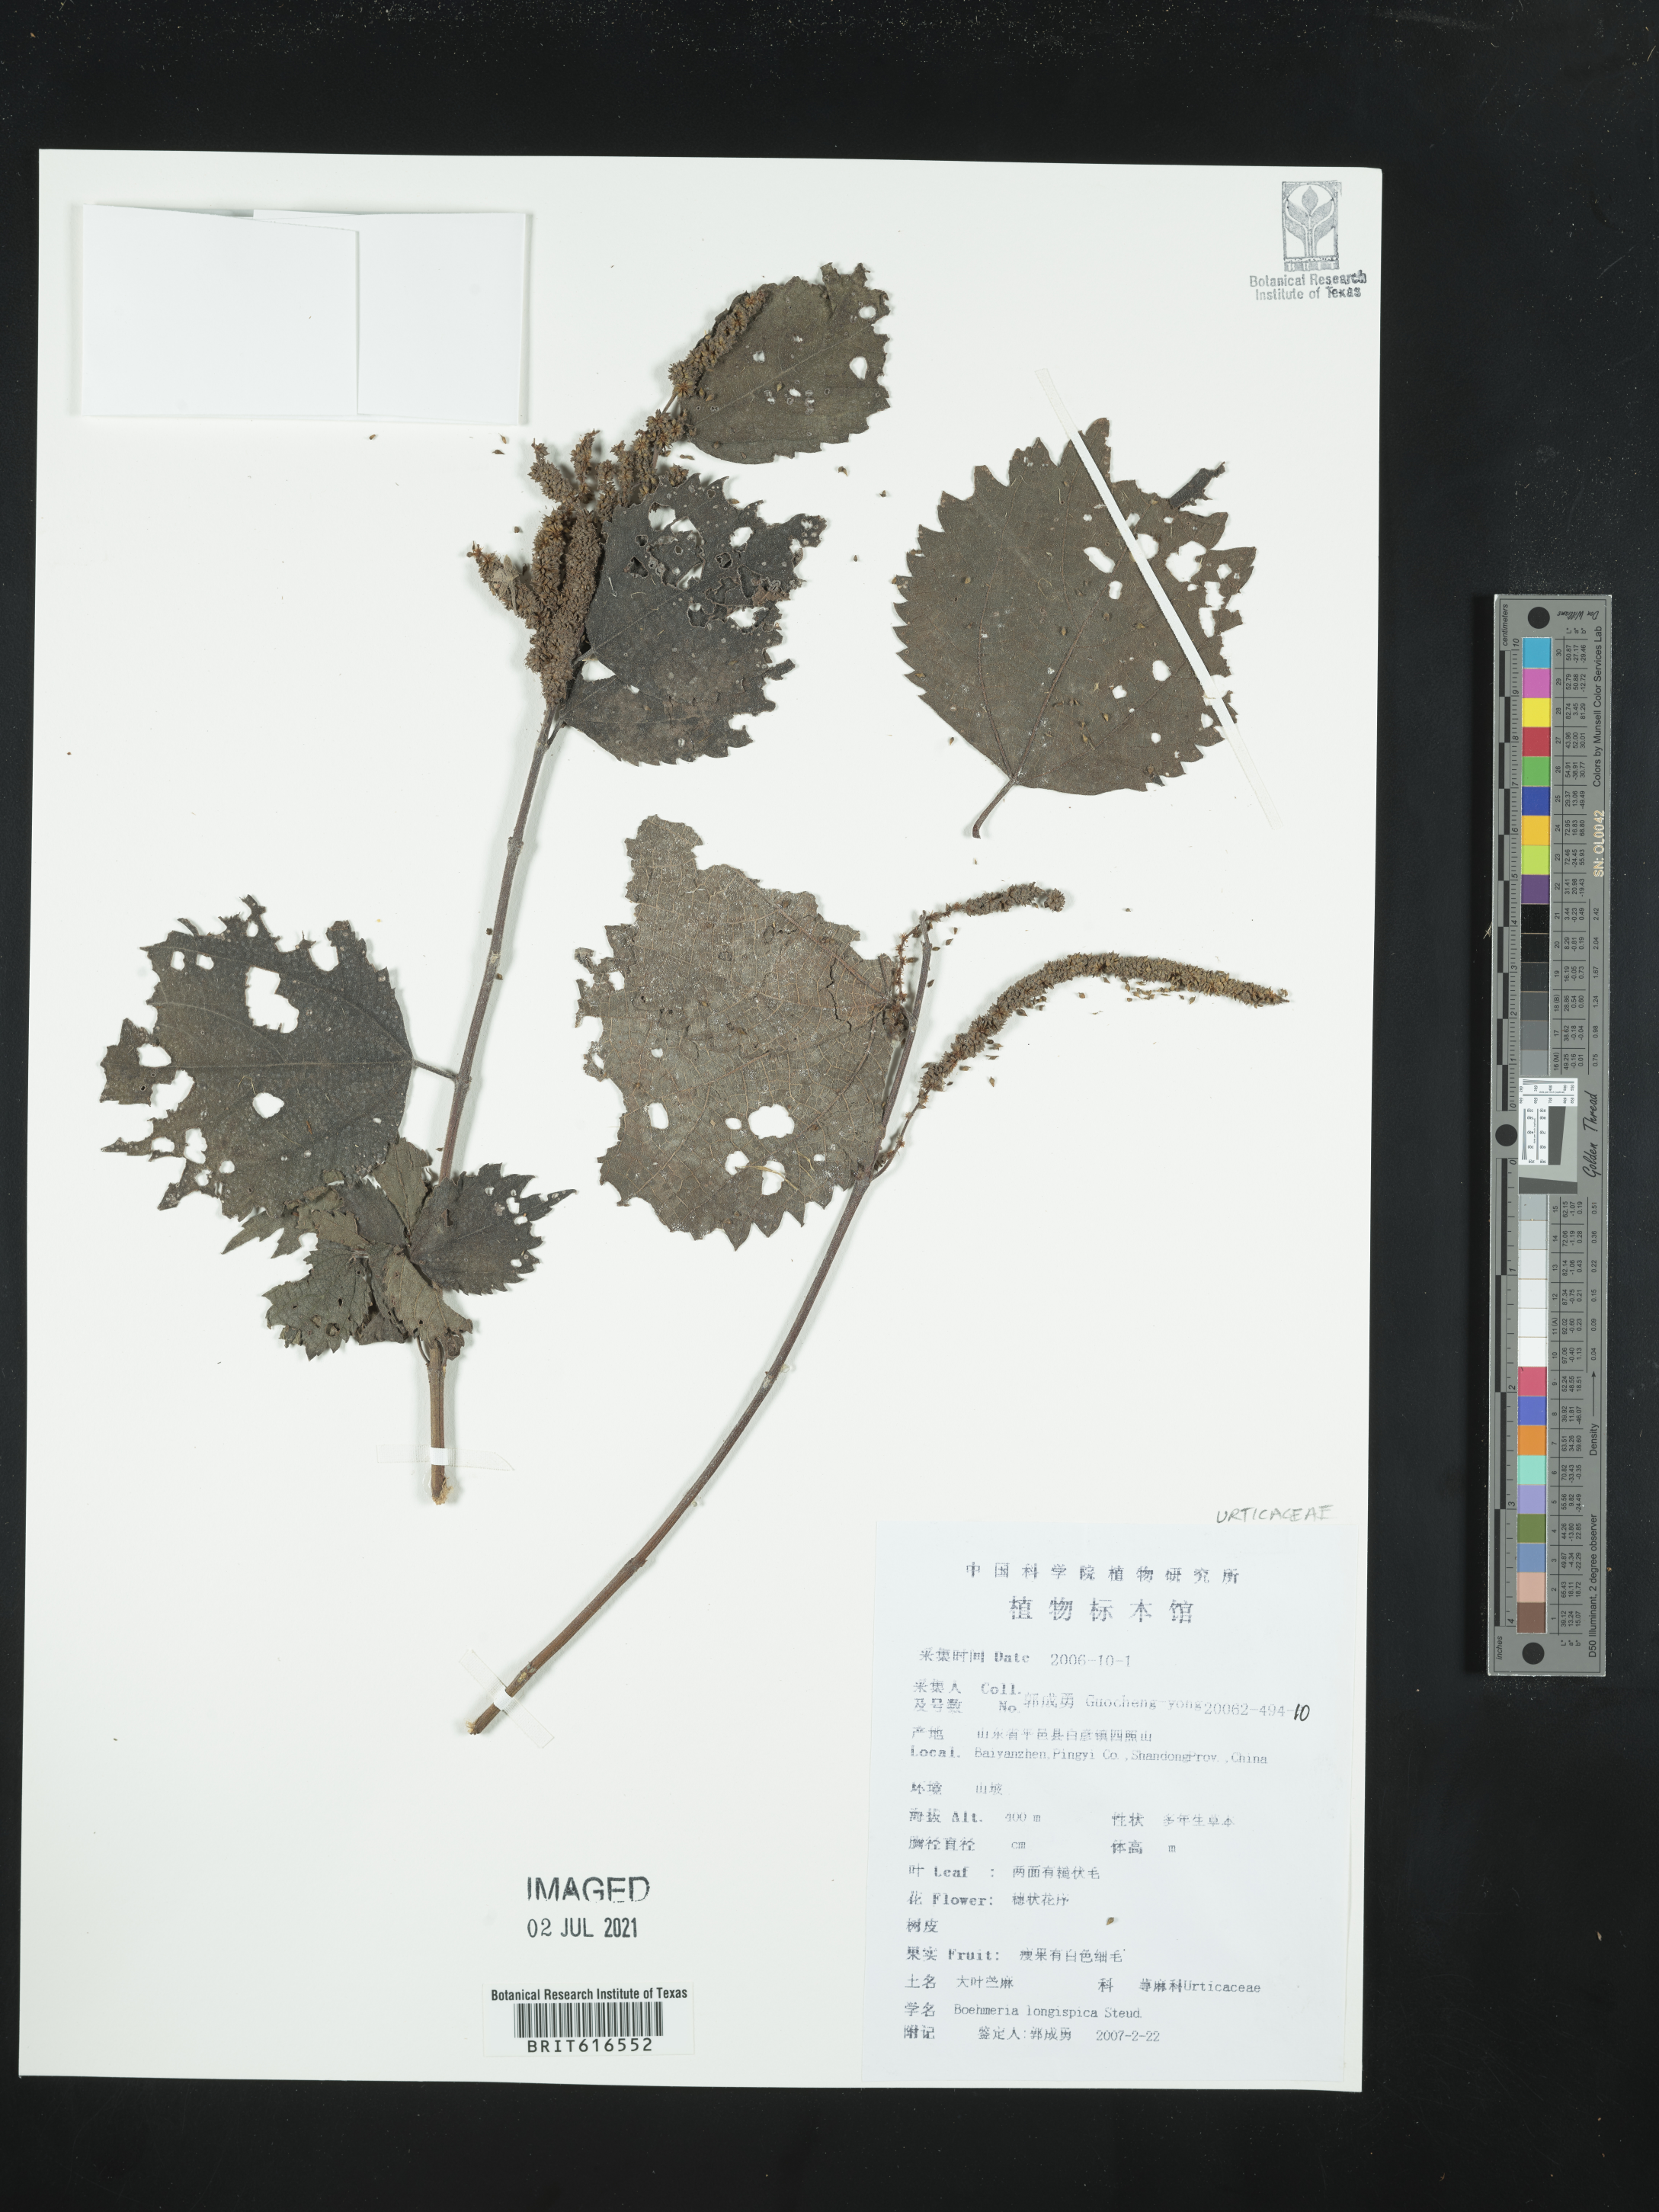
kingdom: Plantae
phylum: Tracheophyta
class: Magnoliopsida
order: Rosales
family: Urticaceae
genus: Boehmeria
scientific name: Boehmeria japonica
